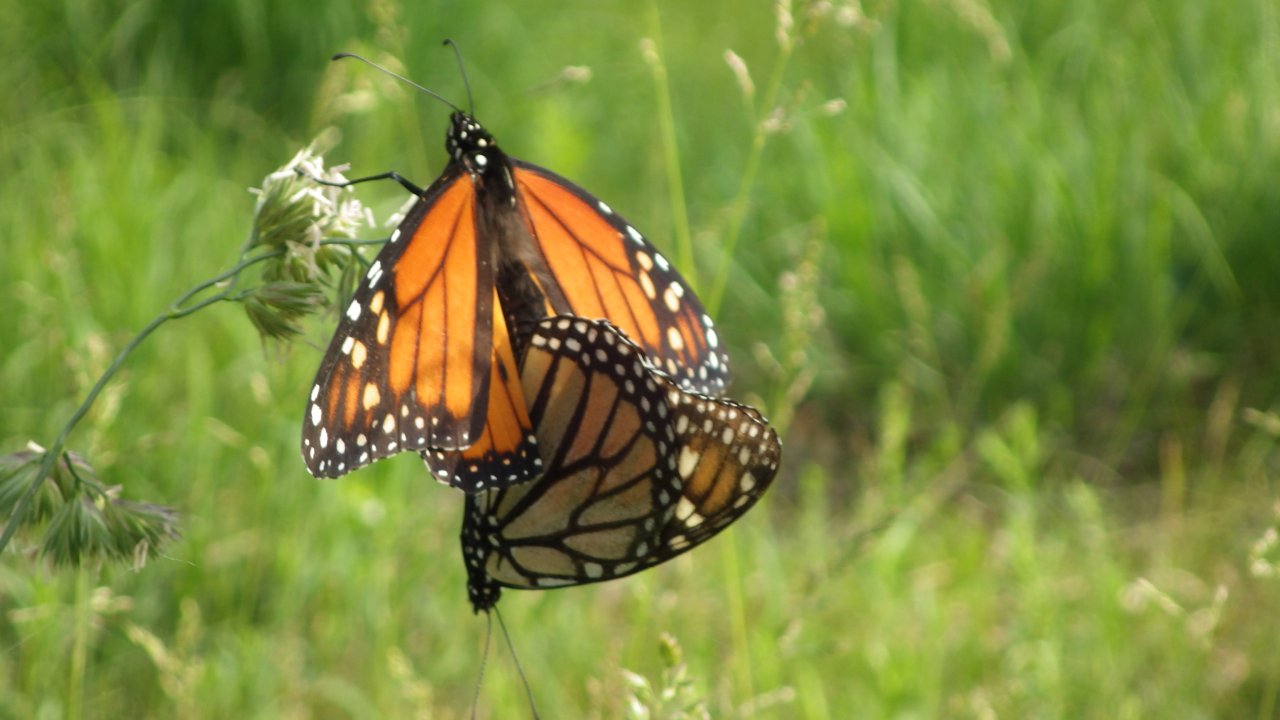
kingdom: Animalia
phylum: Arthropoda
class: Insecta
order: Lepidoptera
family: Nymphalidae
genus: Danaus
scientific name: Danaus plexippus
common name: Monarch
